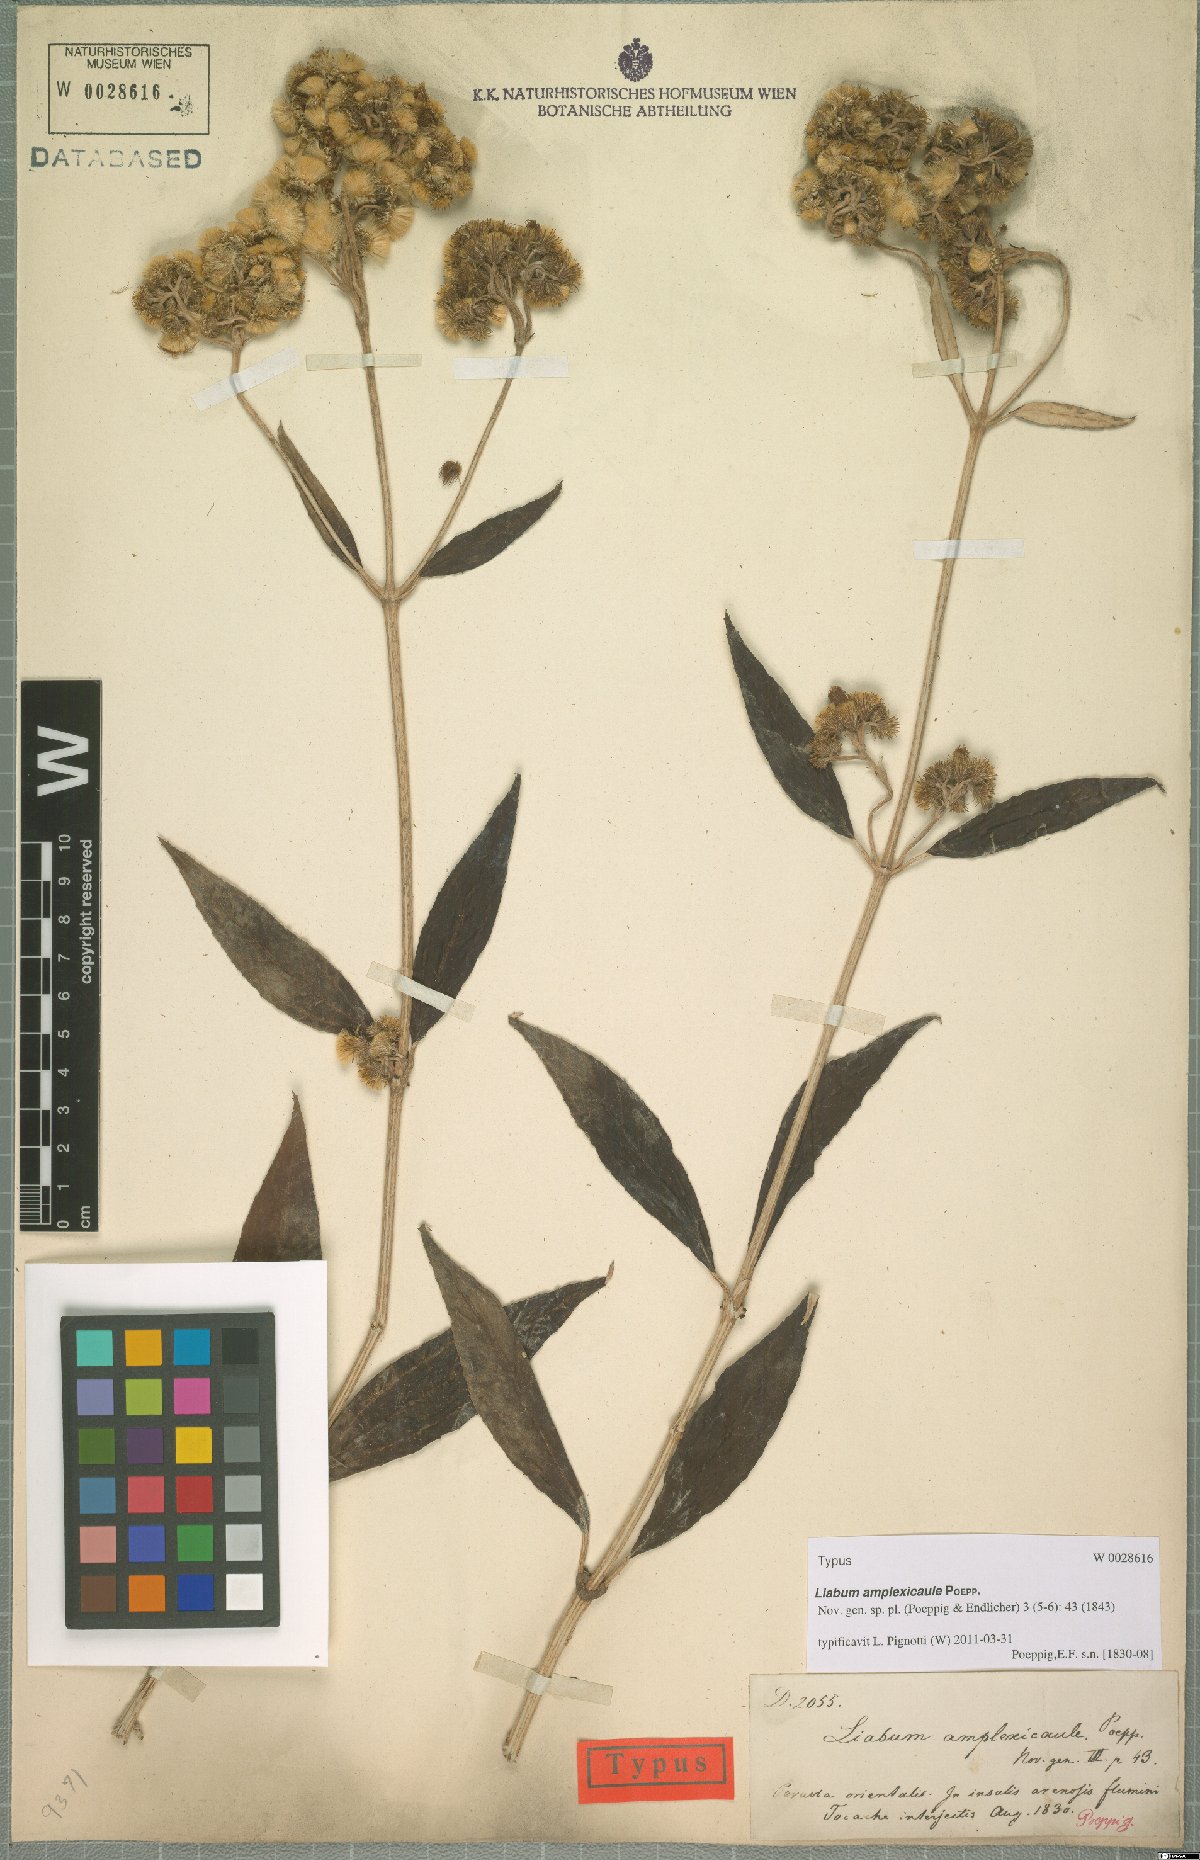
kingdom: Plantae
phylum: Tracheophyta
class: Magnoliopsida
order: Asterales
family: Asteraceae
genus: Liabum
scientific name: Liabum amplexicaule
